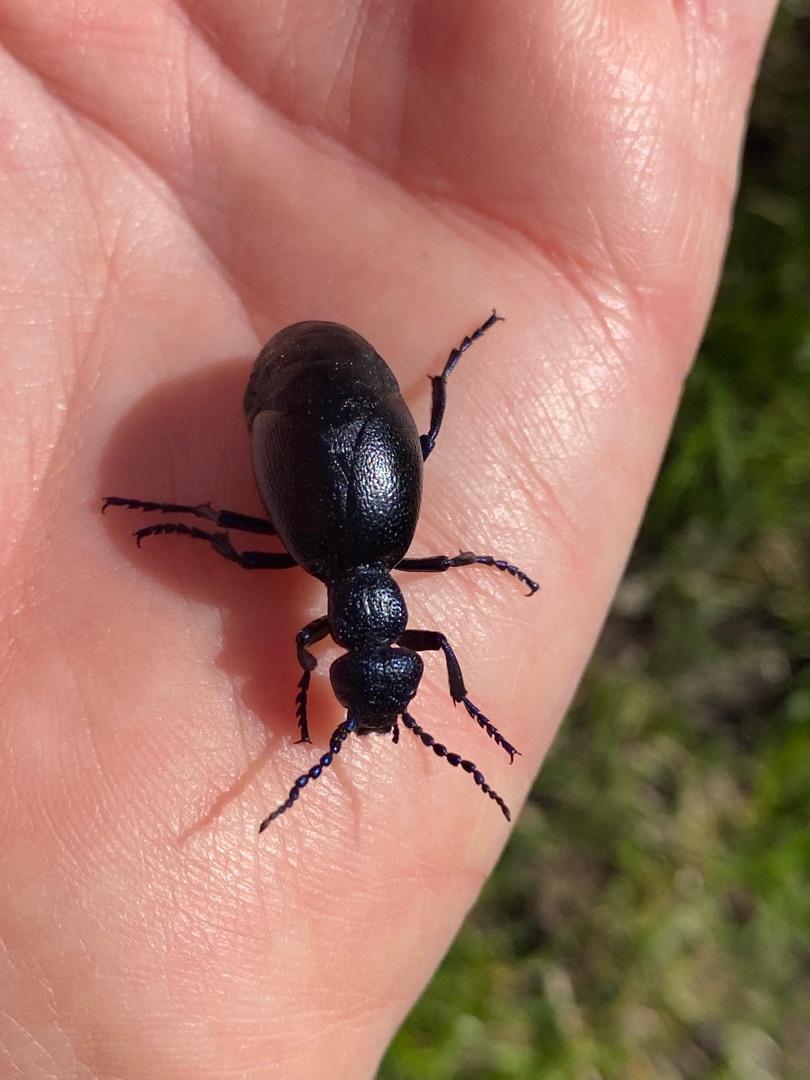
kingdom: Animalia
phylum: Arthropoda
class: Insecta
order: Coleoptera
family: Meloidae
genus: Meloe
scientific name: Meloe proscarabaeus
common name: Sort oliebille
